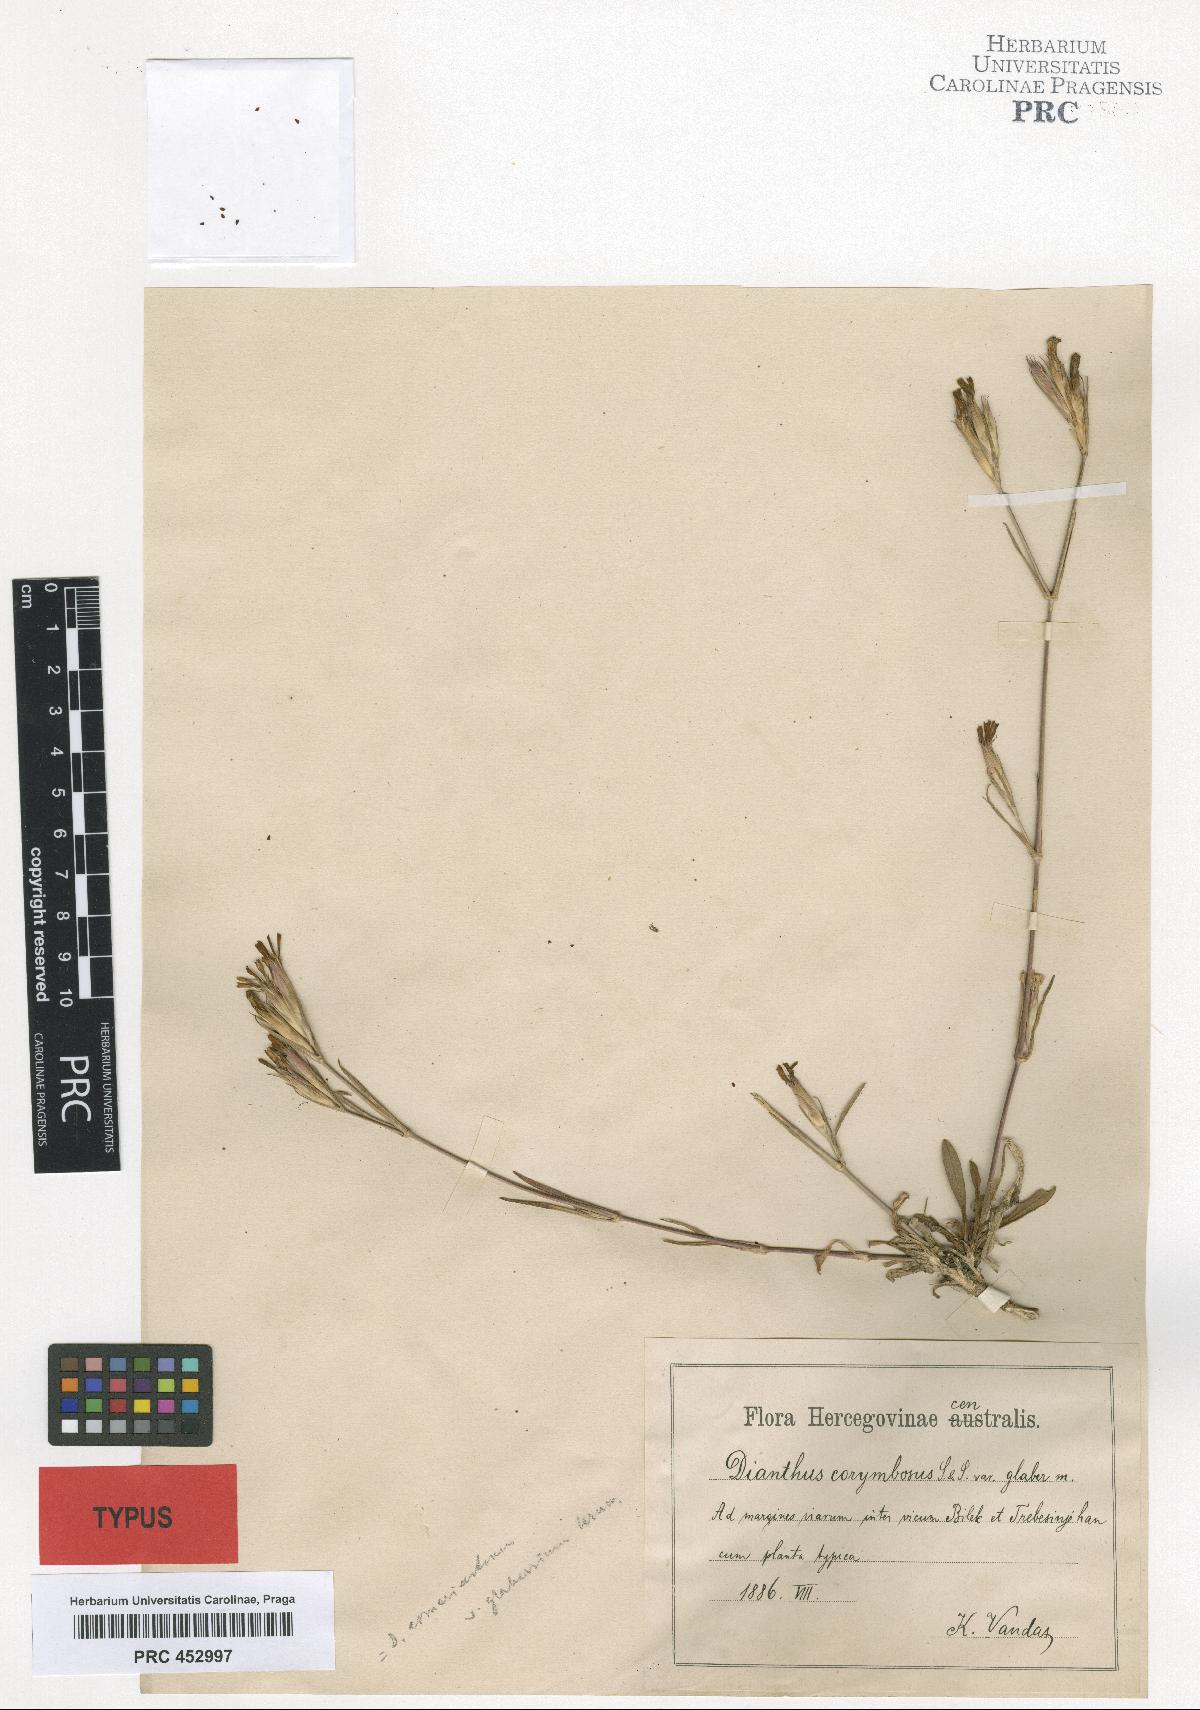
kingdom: Plantae
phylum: Tracheophyta
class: Magnoliopsida
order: Caryophyllales
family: Caryophyllaceae
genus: Dianthus
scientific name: Dianthus corymbosus
